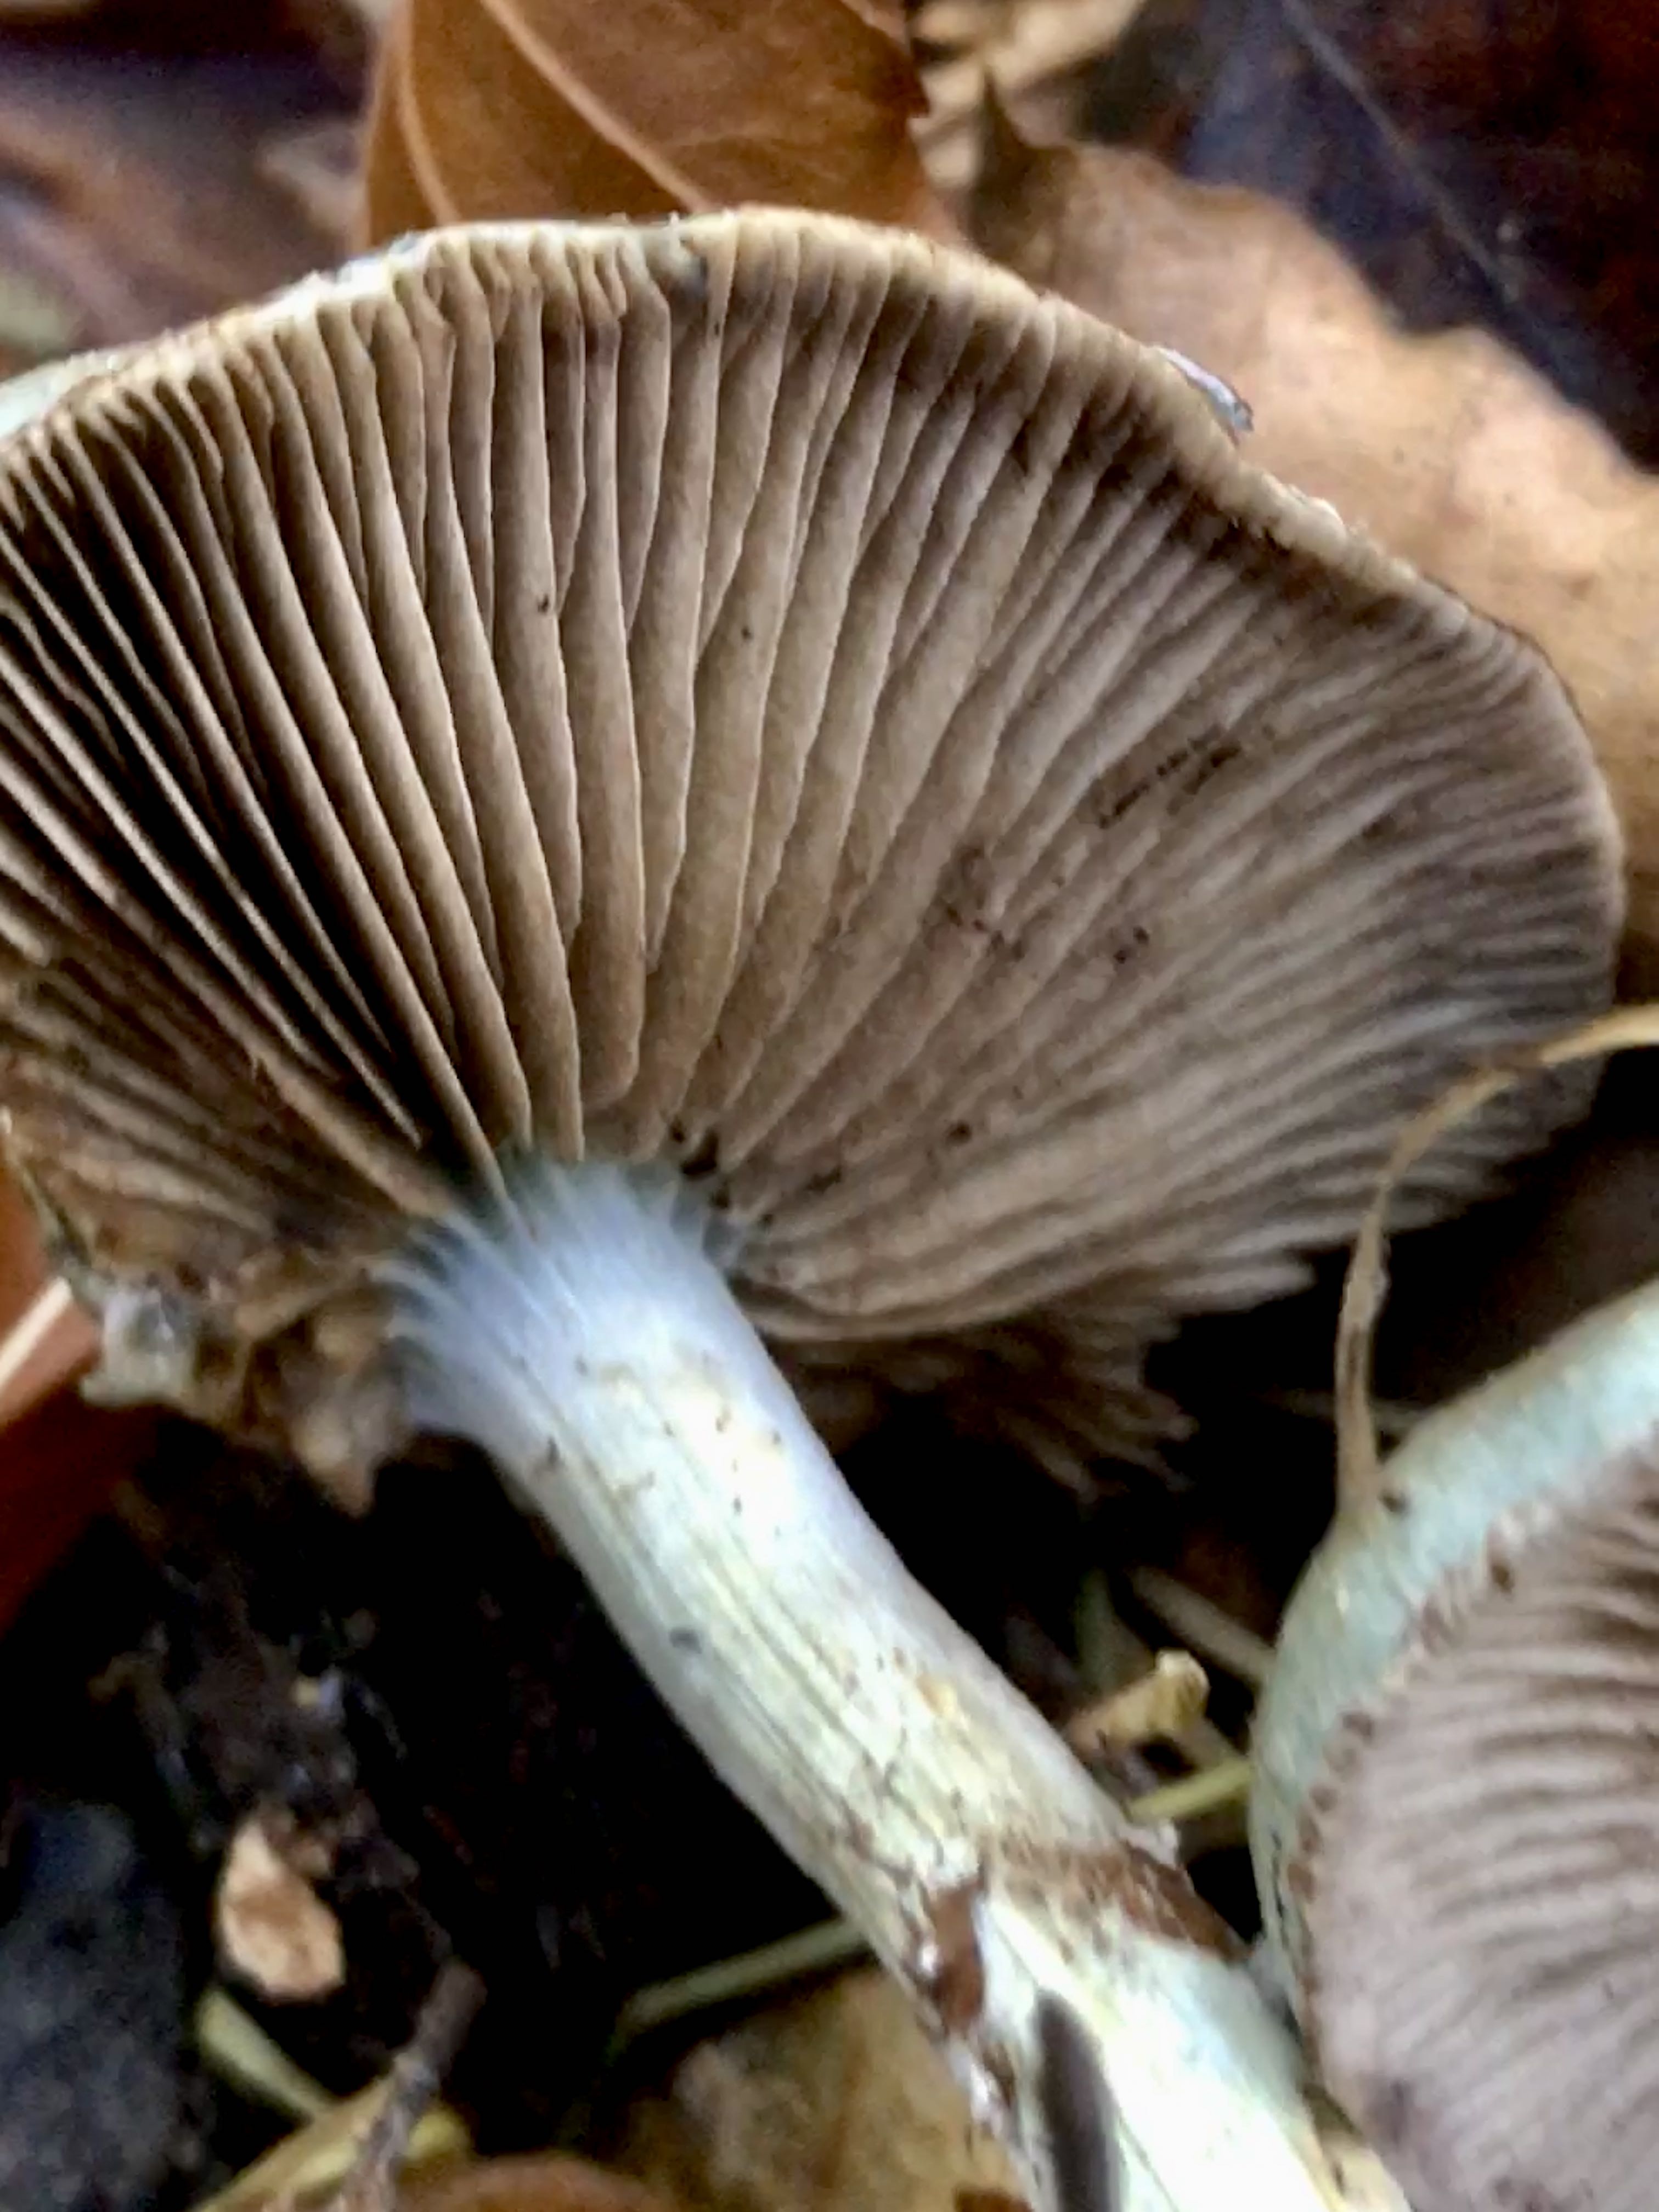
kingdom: Fungi
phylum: Basidiomycota
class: Agaricomycetes
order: Agaricales
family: Strophariaceae
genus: Stropharia
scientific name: Stropharia cyanea
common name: blågrøn bredblad
